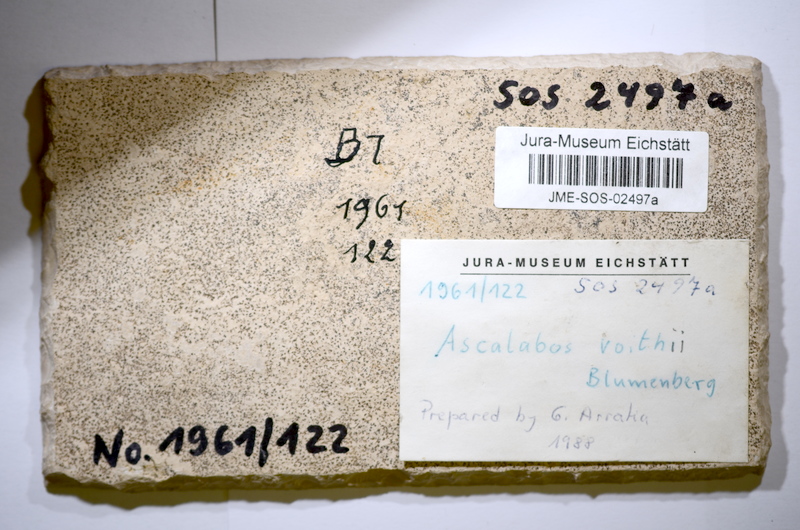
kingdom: Animalia
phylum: Chordata
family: Ascalaboidae
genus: Ascalabos
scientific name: Ascalabos voithii
